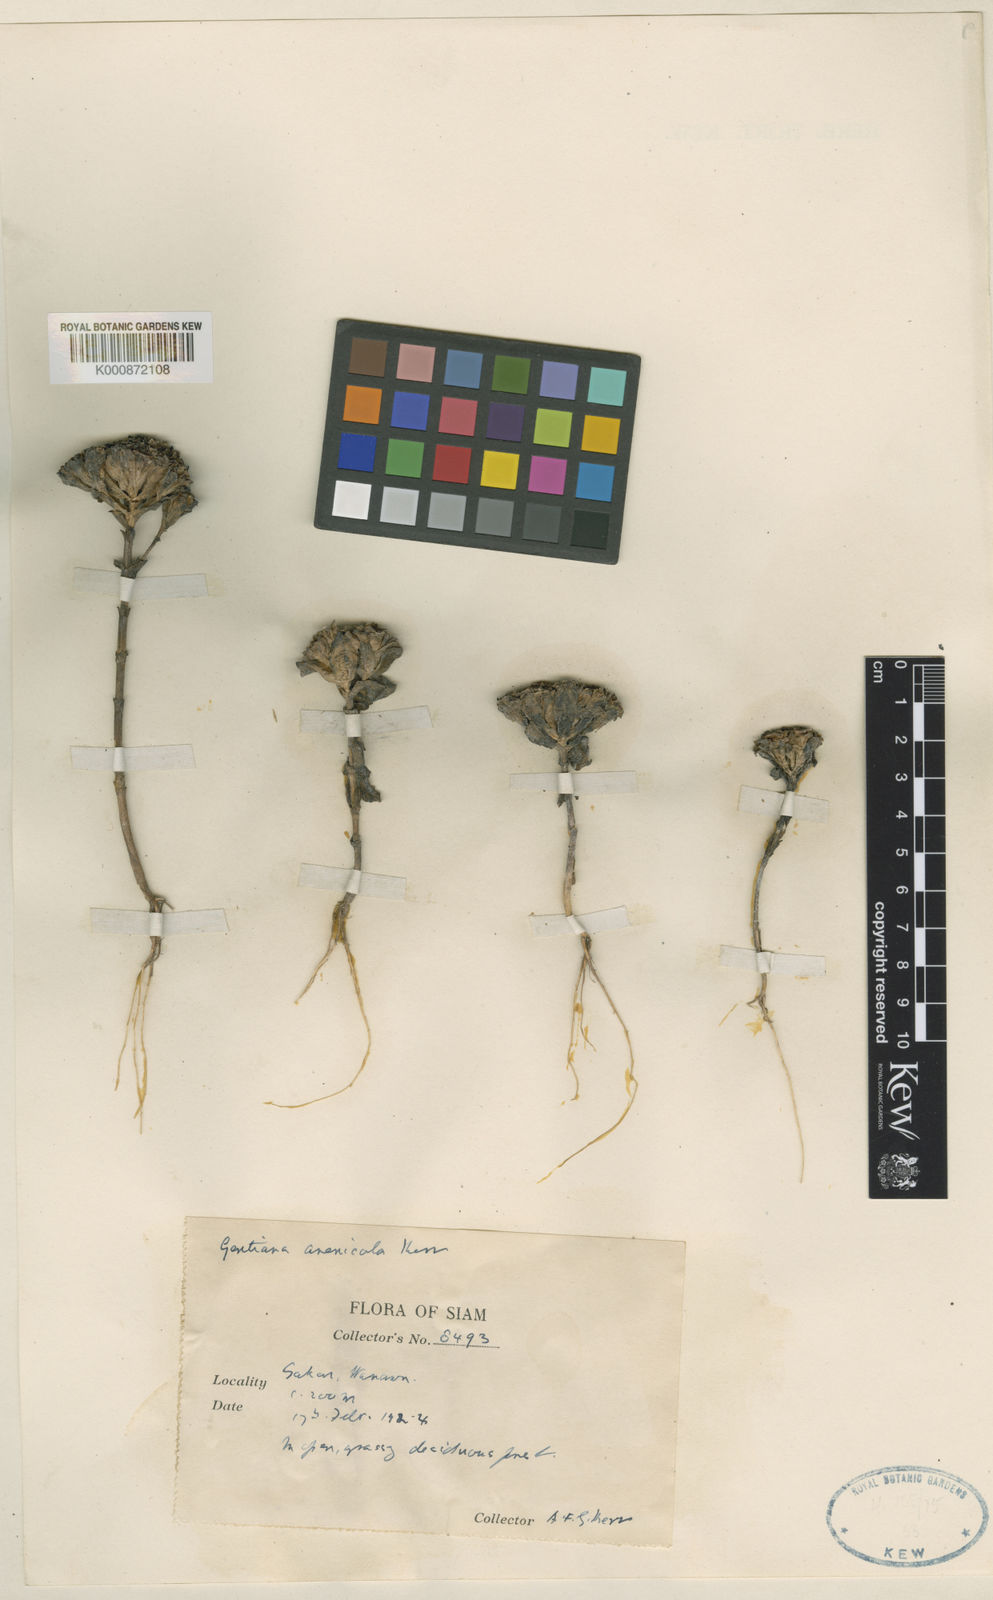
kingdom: Plantae
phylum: Tracheophyta
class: Magnoliopsida
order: Gentianales
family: Gentianaceae
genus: Gentiana
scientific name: Gentiana arenicola
